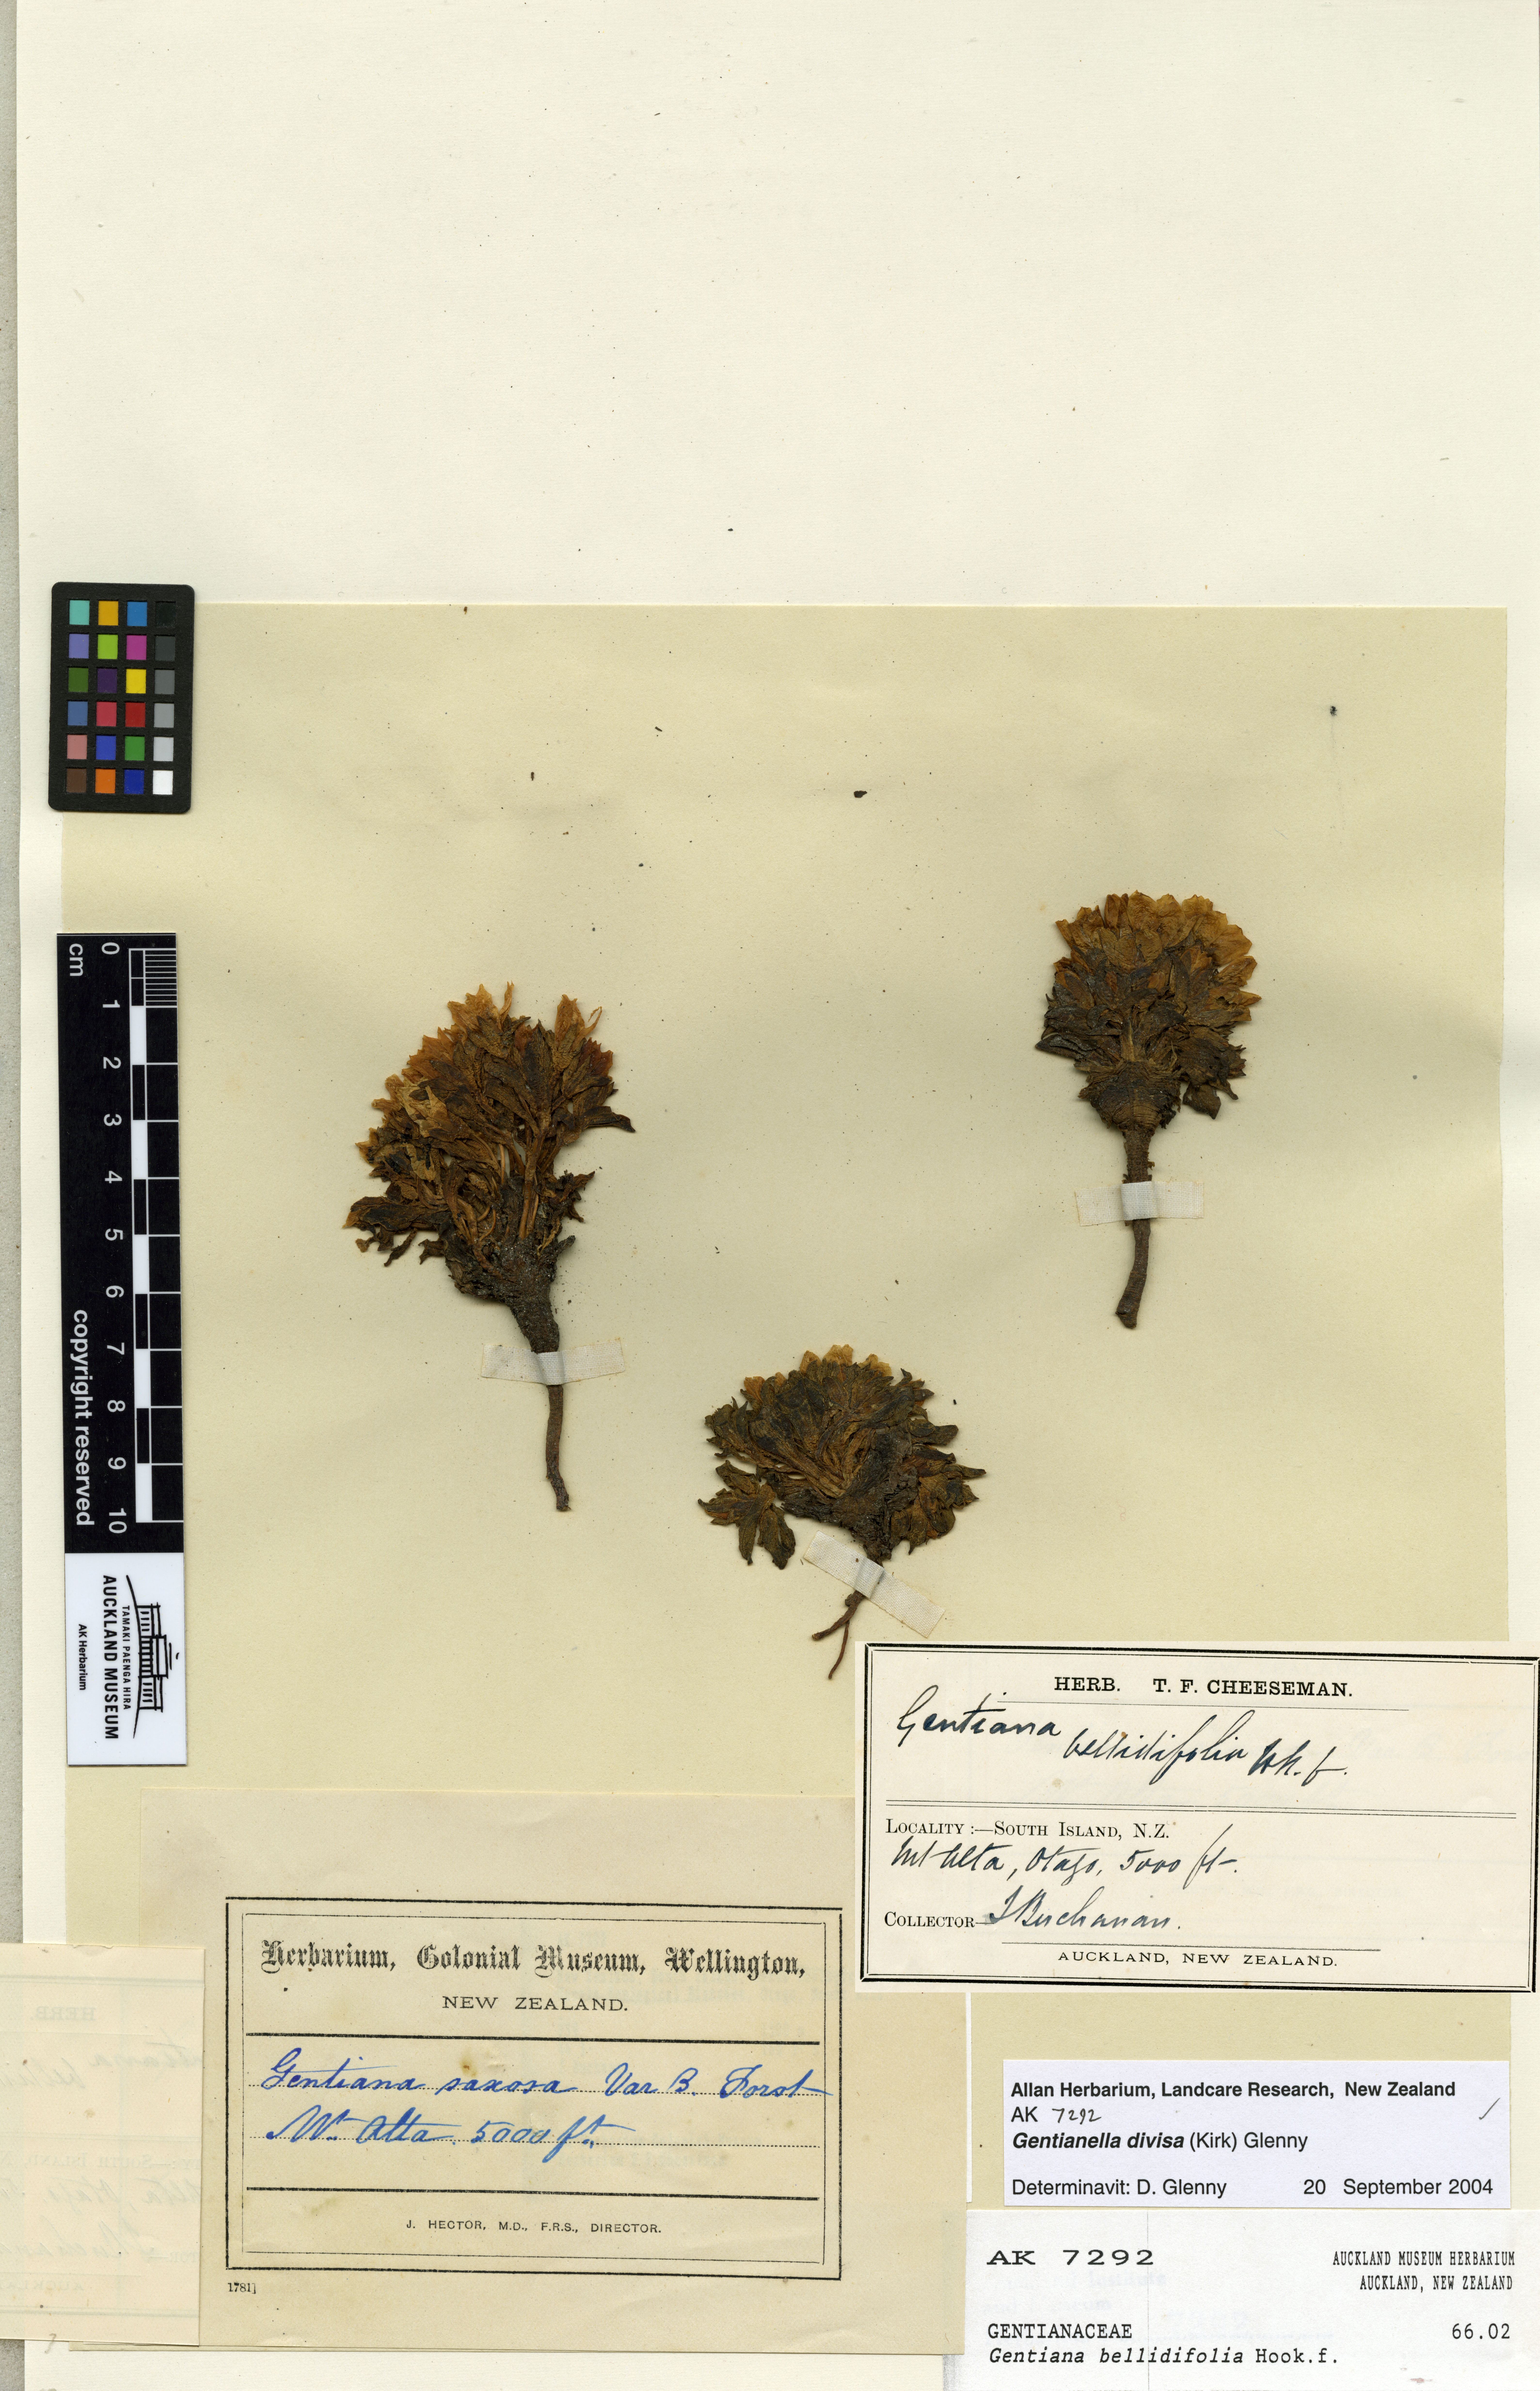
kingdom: Plantae
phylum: Tracheophyta
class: Magnoliopsida
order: Gentianales
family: Gentianaceae
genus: Gentianella
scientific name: Gentianella divisa
